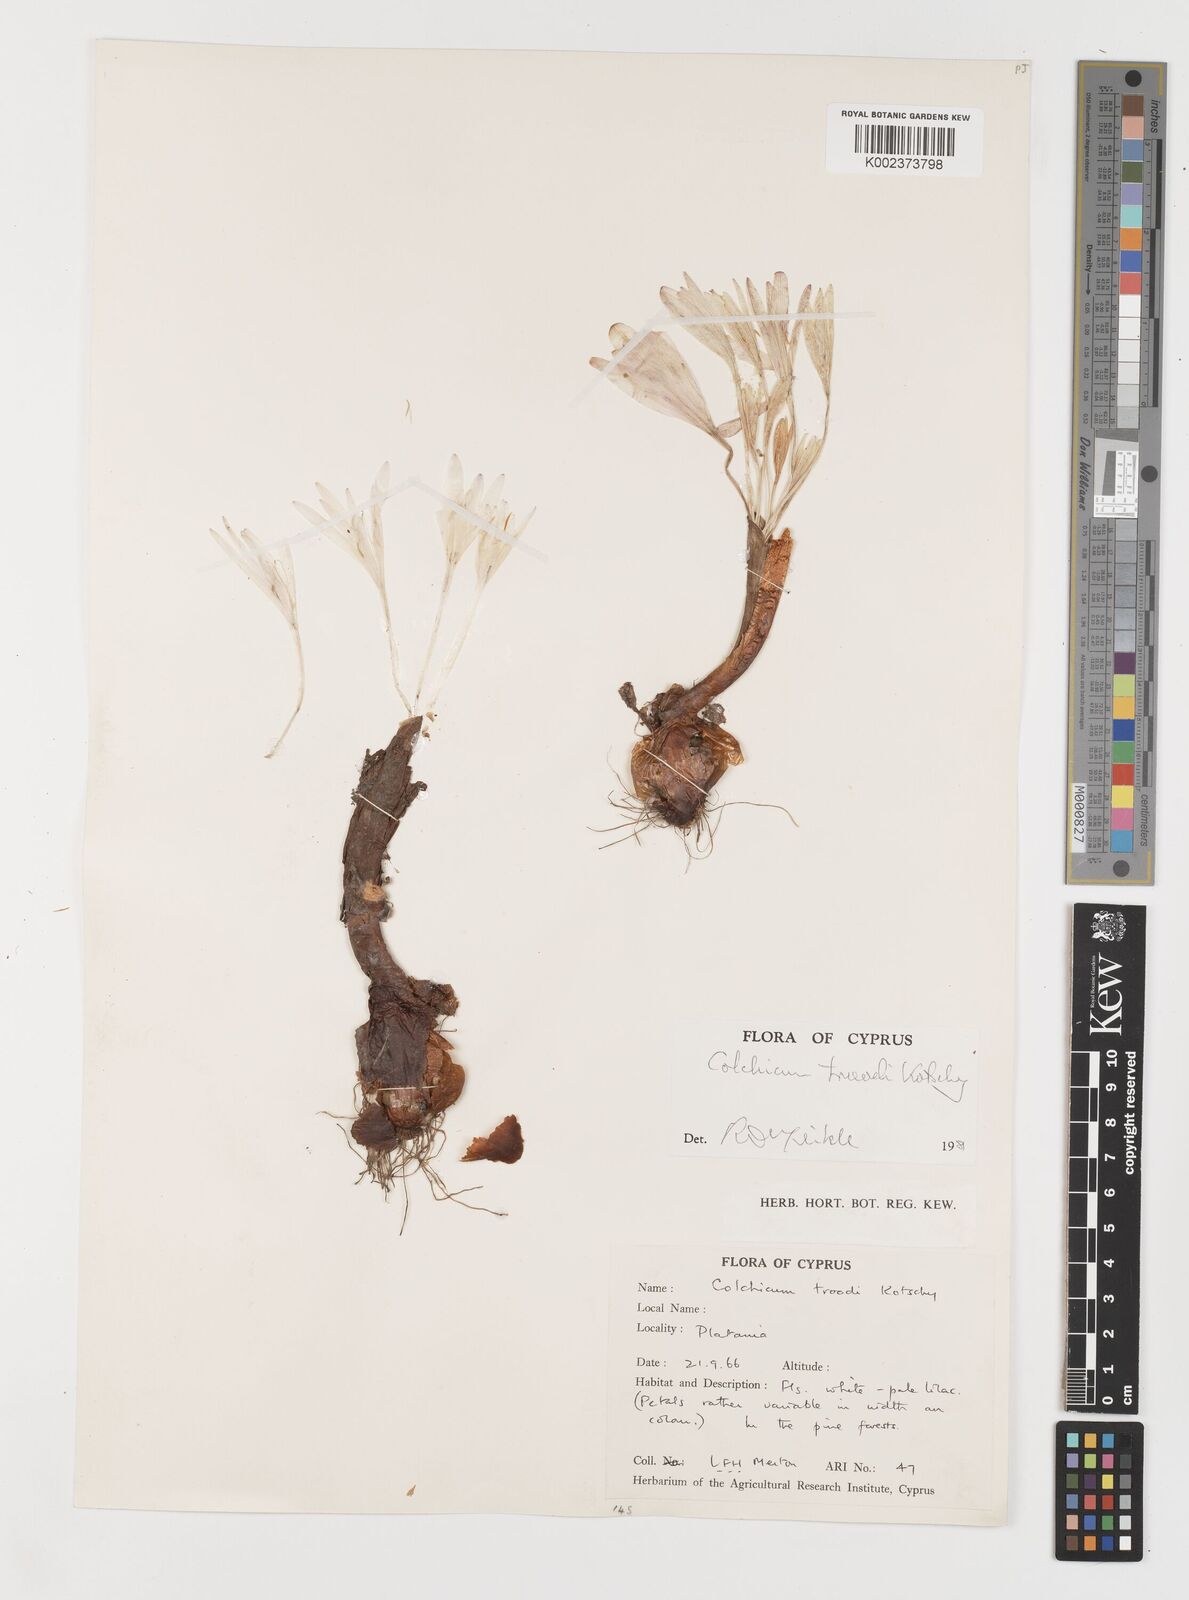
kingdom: Plantae
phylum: Tracheophyta
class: Liliopsida
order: Liliales
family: Colchicaceae
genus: Colchicum
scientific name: Colchicum troodi
